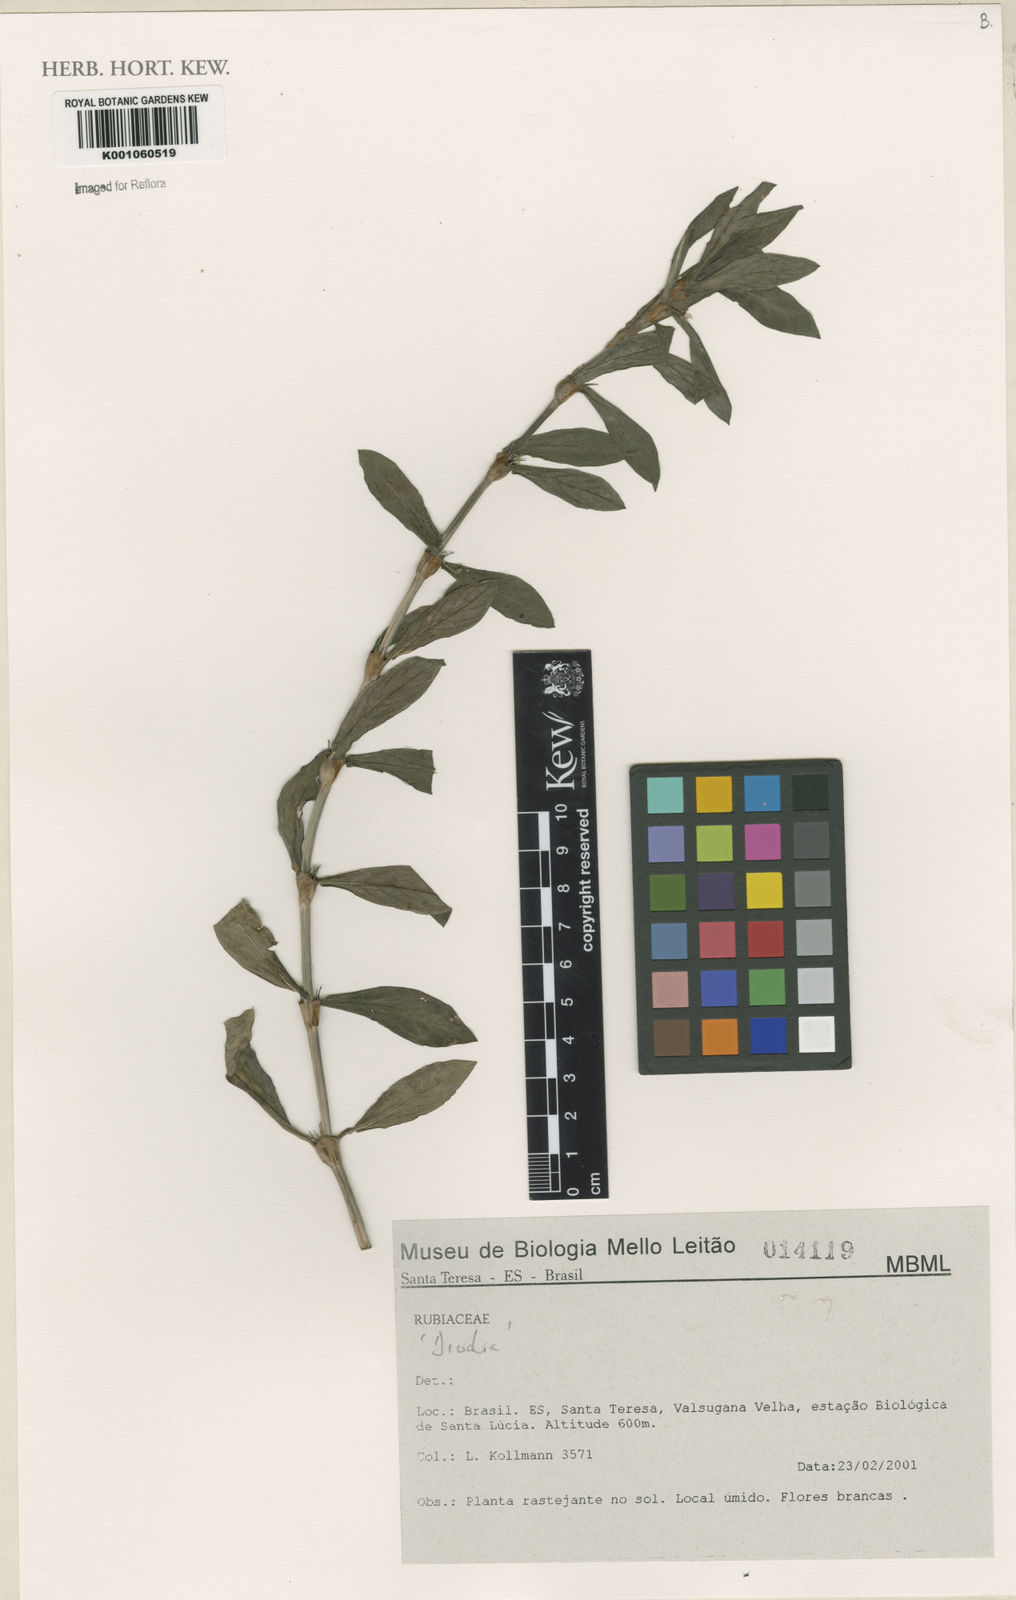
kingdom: Plantae
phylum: Tracheophyta
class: Magnoliopsida
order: Gentianales
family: Rubiaceae
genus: Diodia
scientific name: Diodia
